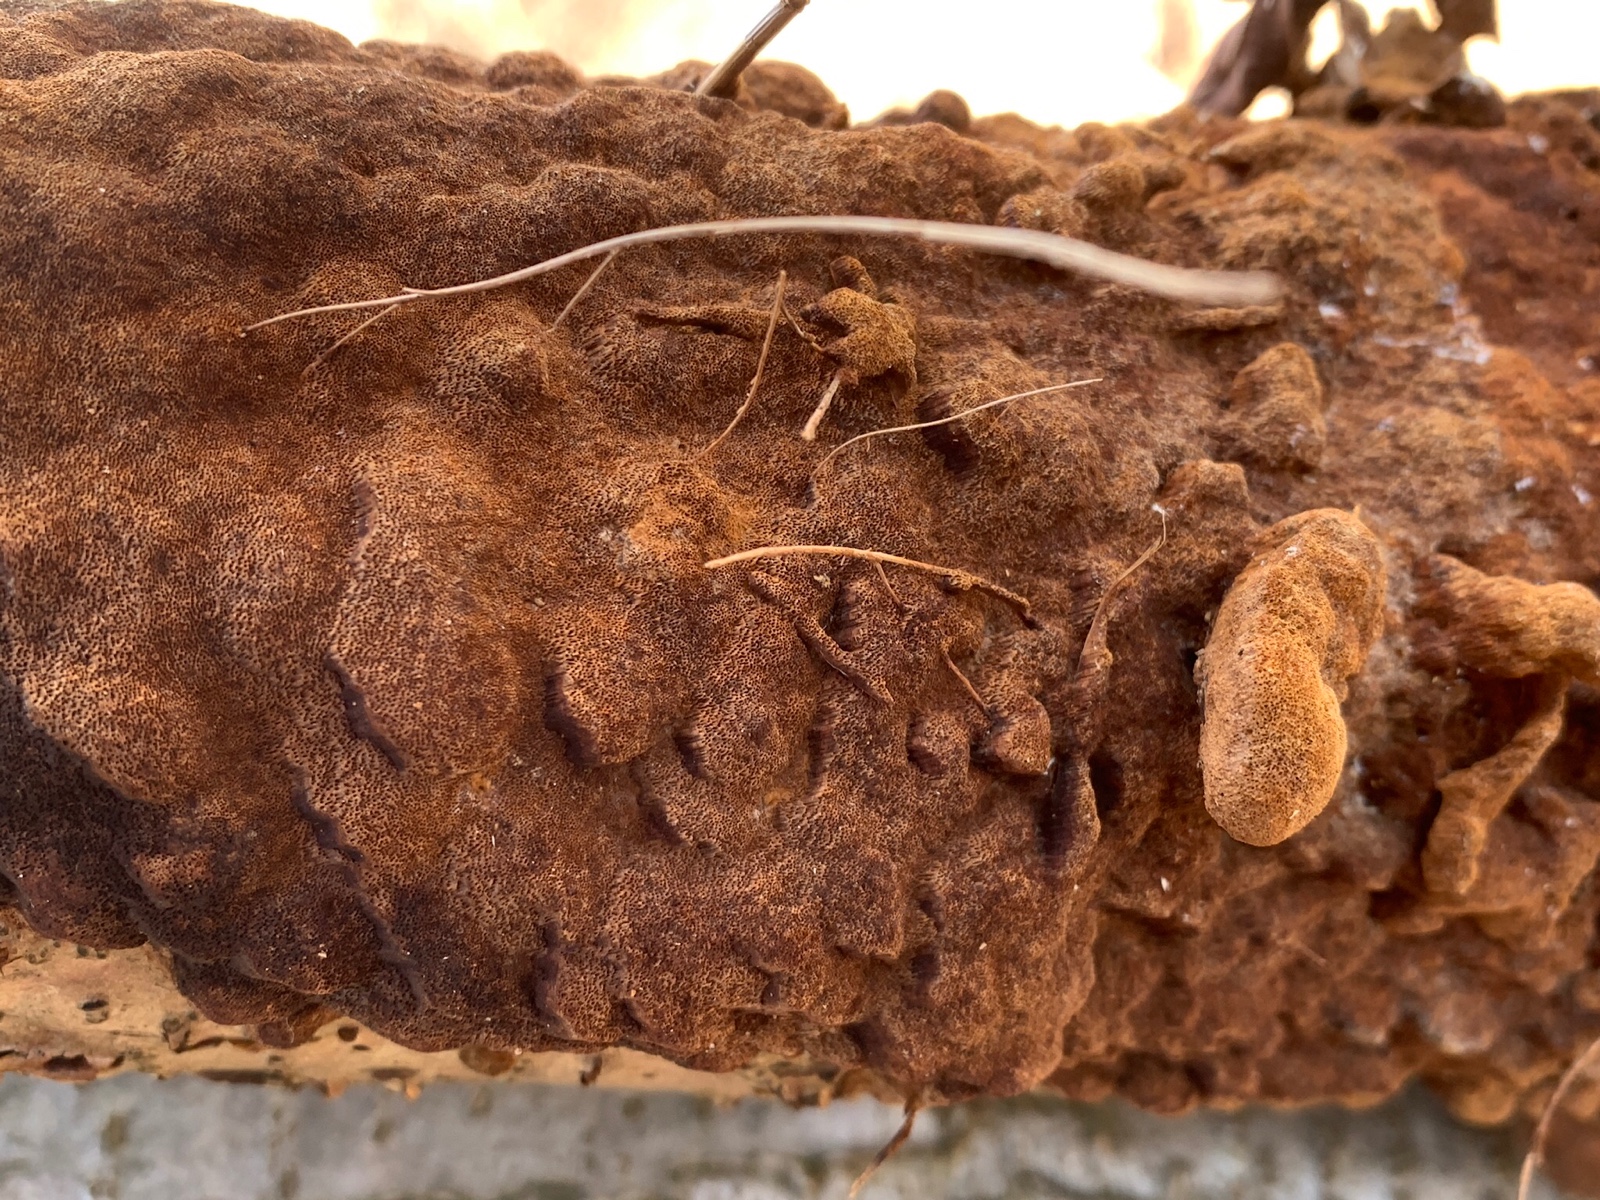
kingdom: Fungi
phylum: Basidiomycota
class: Agaricomycetes
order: Hymenochaetales
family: Hymenochaetaceae
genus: Fuscoporia
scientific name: Fuscoporia ferrea
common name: skorpe-ildporesvamp
